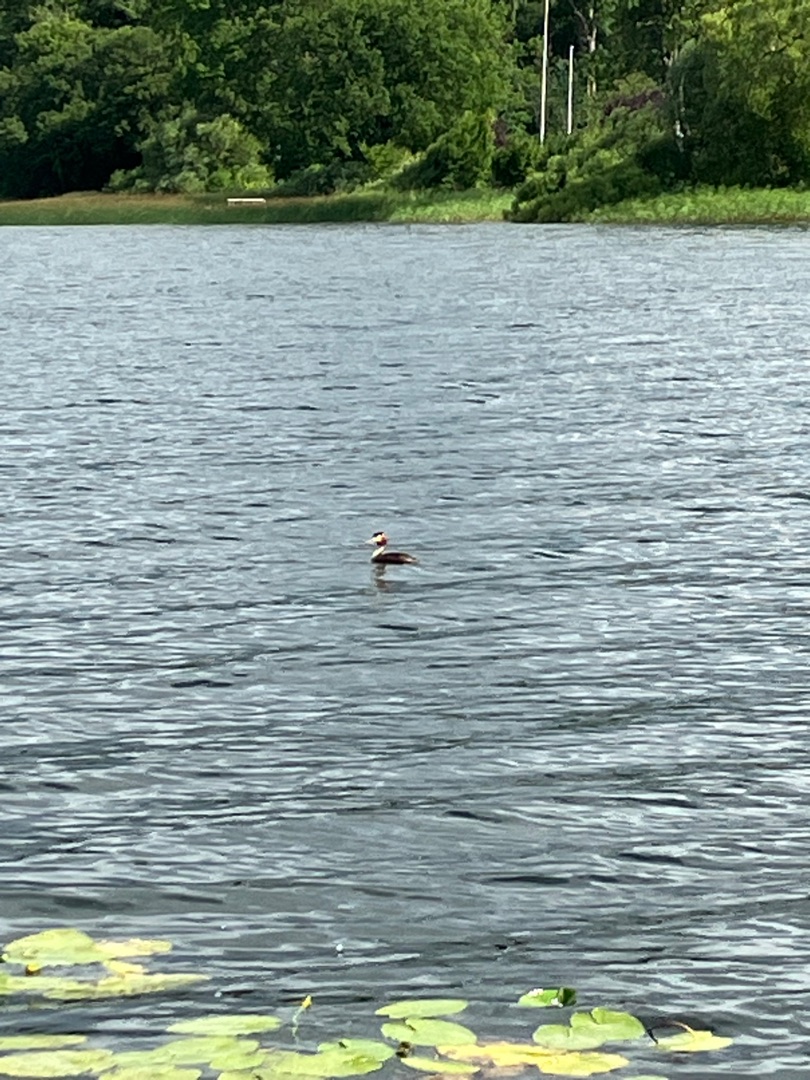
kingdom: Animalia
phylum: Chordata
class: Aves
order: Podicipediformes
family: Podicipedidae
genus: Podiceps
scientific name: Podiceps cristatus
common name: Toppet lappedykker
